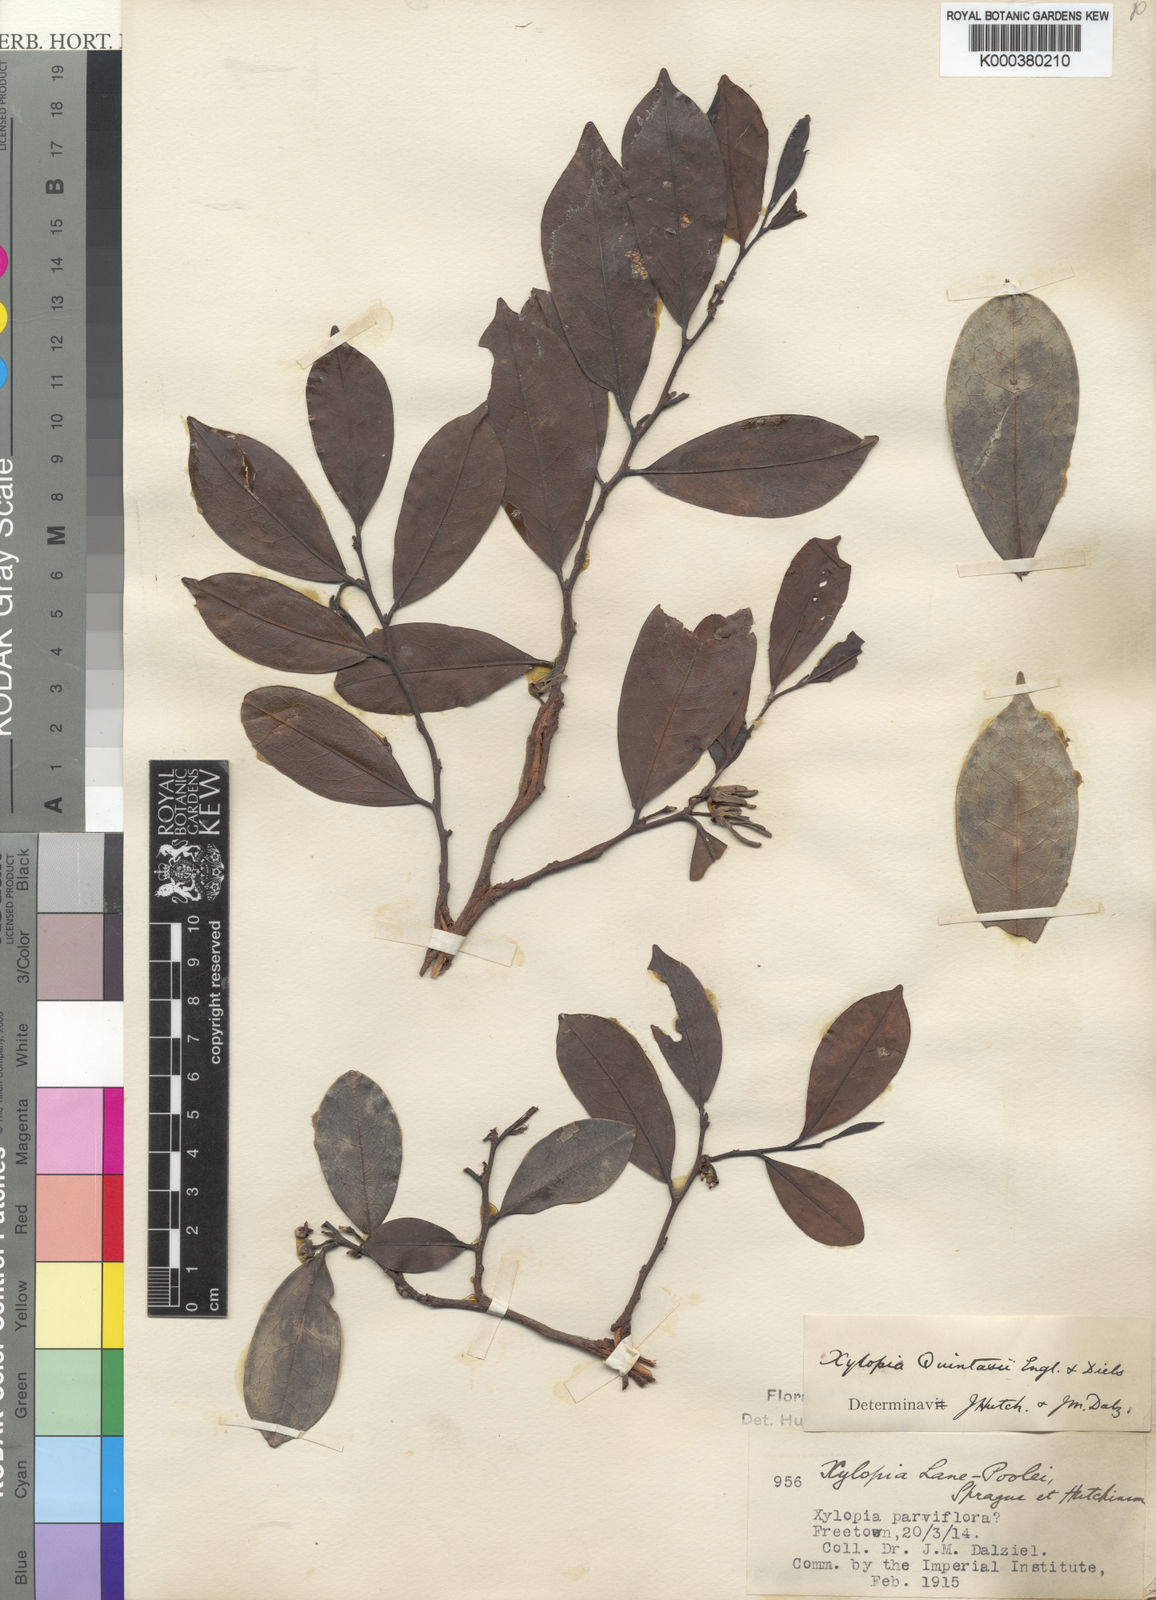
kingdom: Plantae
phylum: Tracheophyta
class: Magnoliopsida
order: Magnoliales
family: Annonaceae
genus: Xylopia
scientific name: Xylopia quintasii
